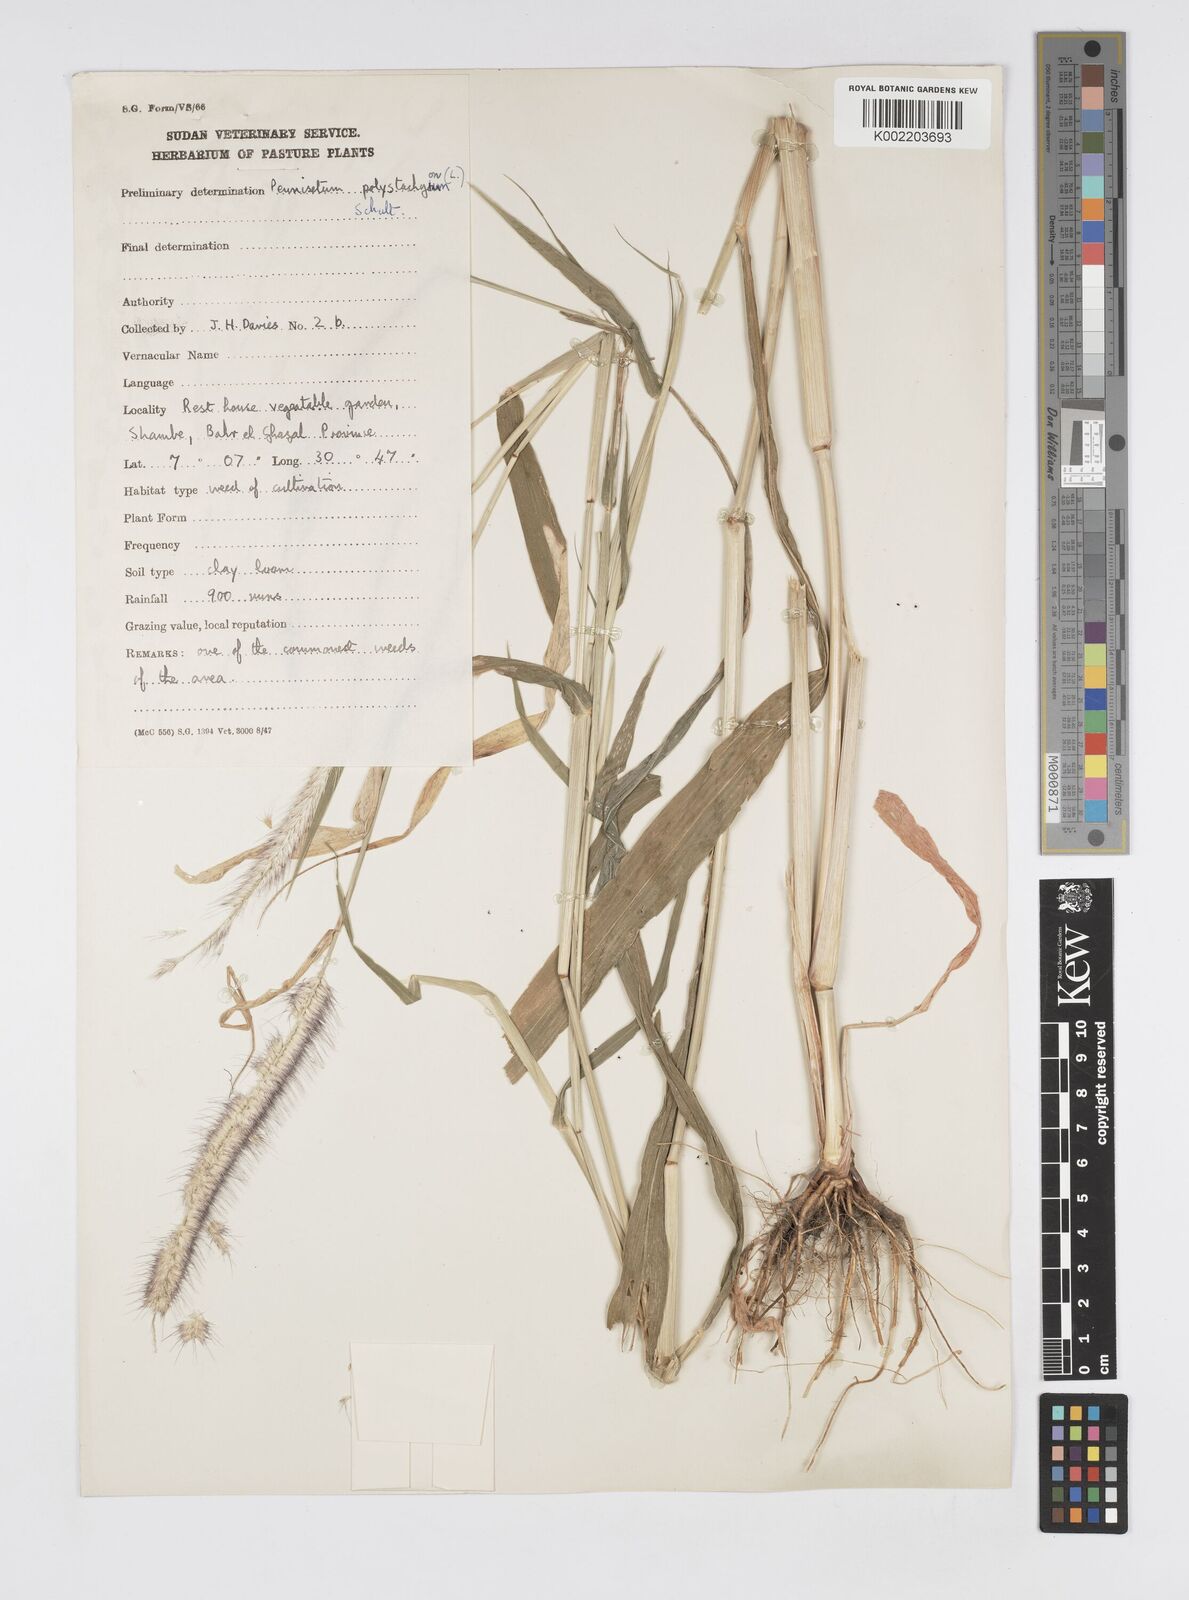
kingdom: Plantae
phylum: Tracheophyta
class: Liliopsida
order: Poales
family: Poaceae
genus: Setaria
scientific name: Setaria parviflora
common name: Knotroot bristle-grass
